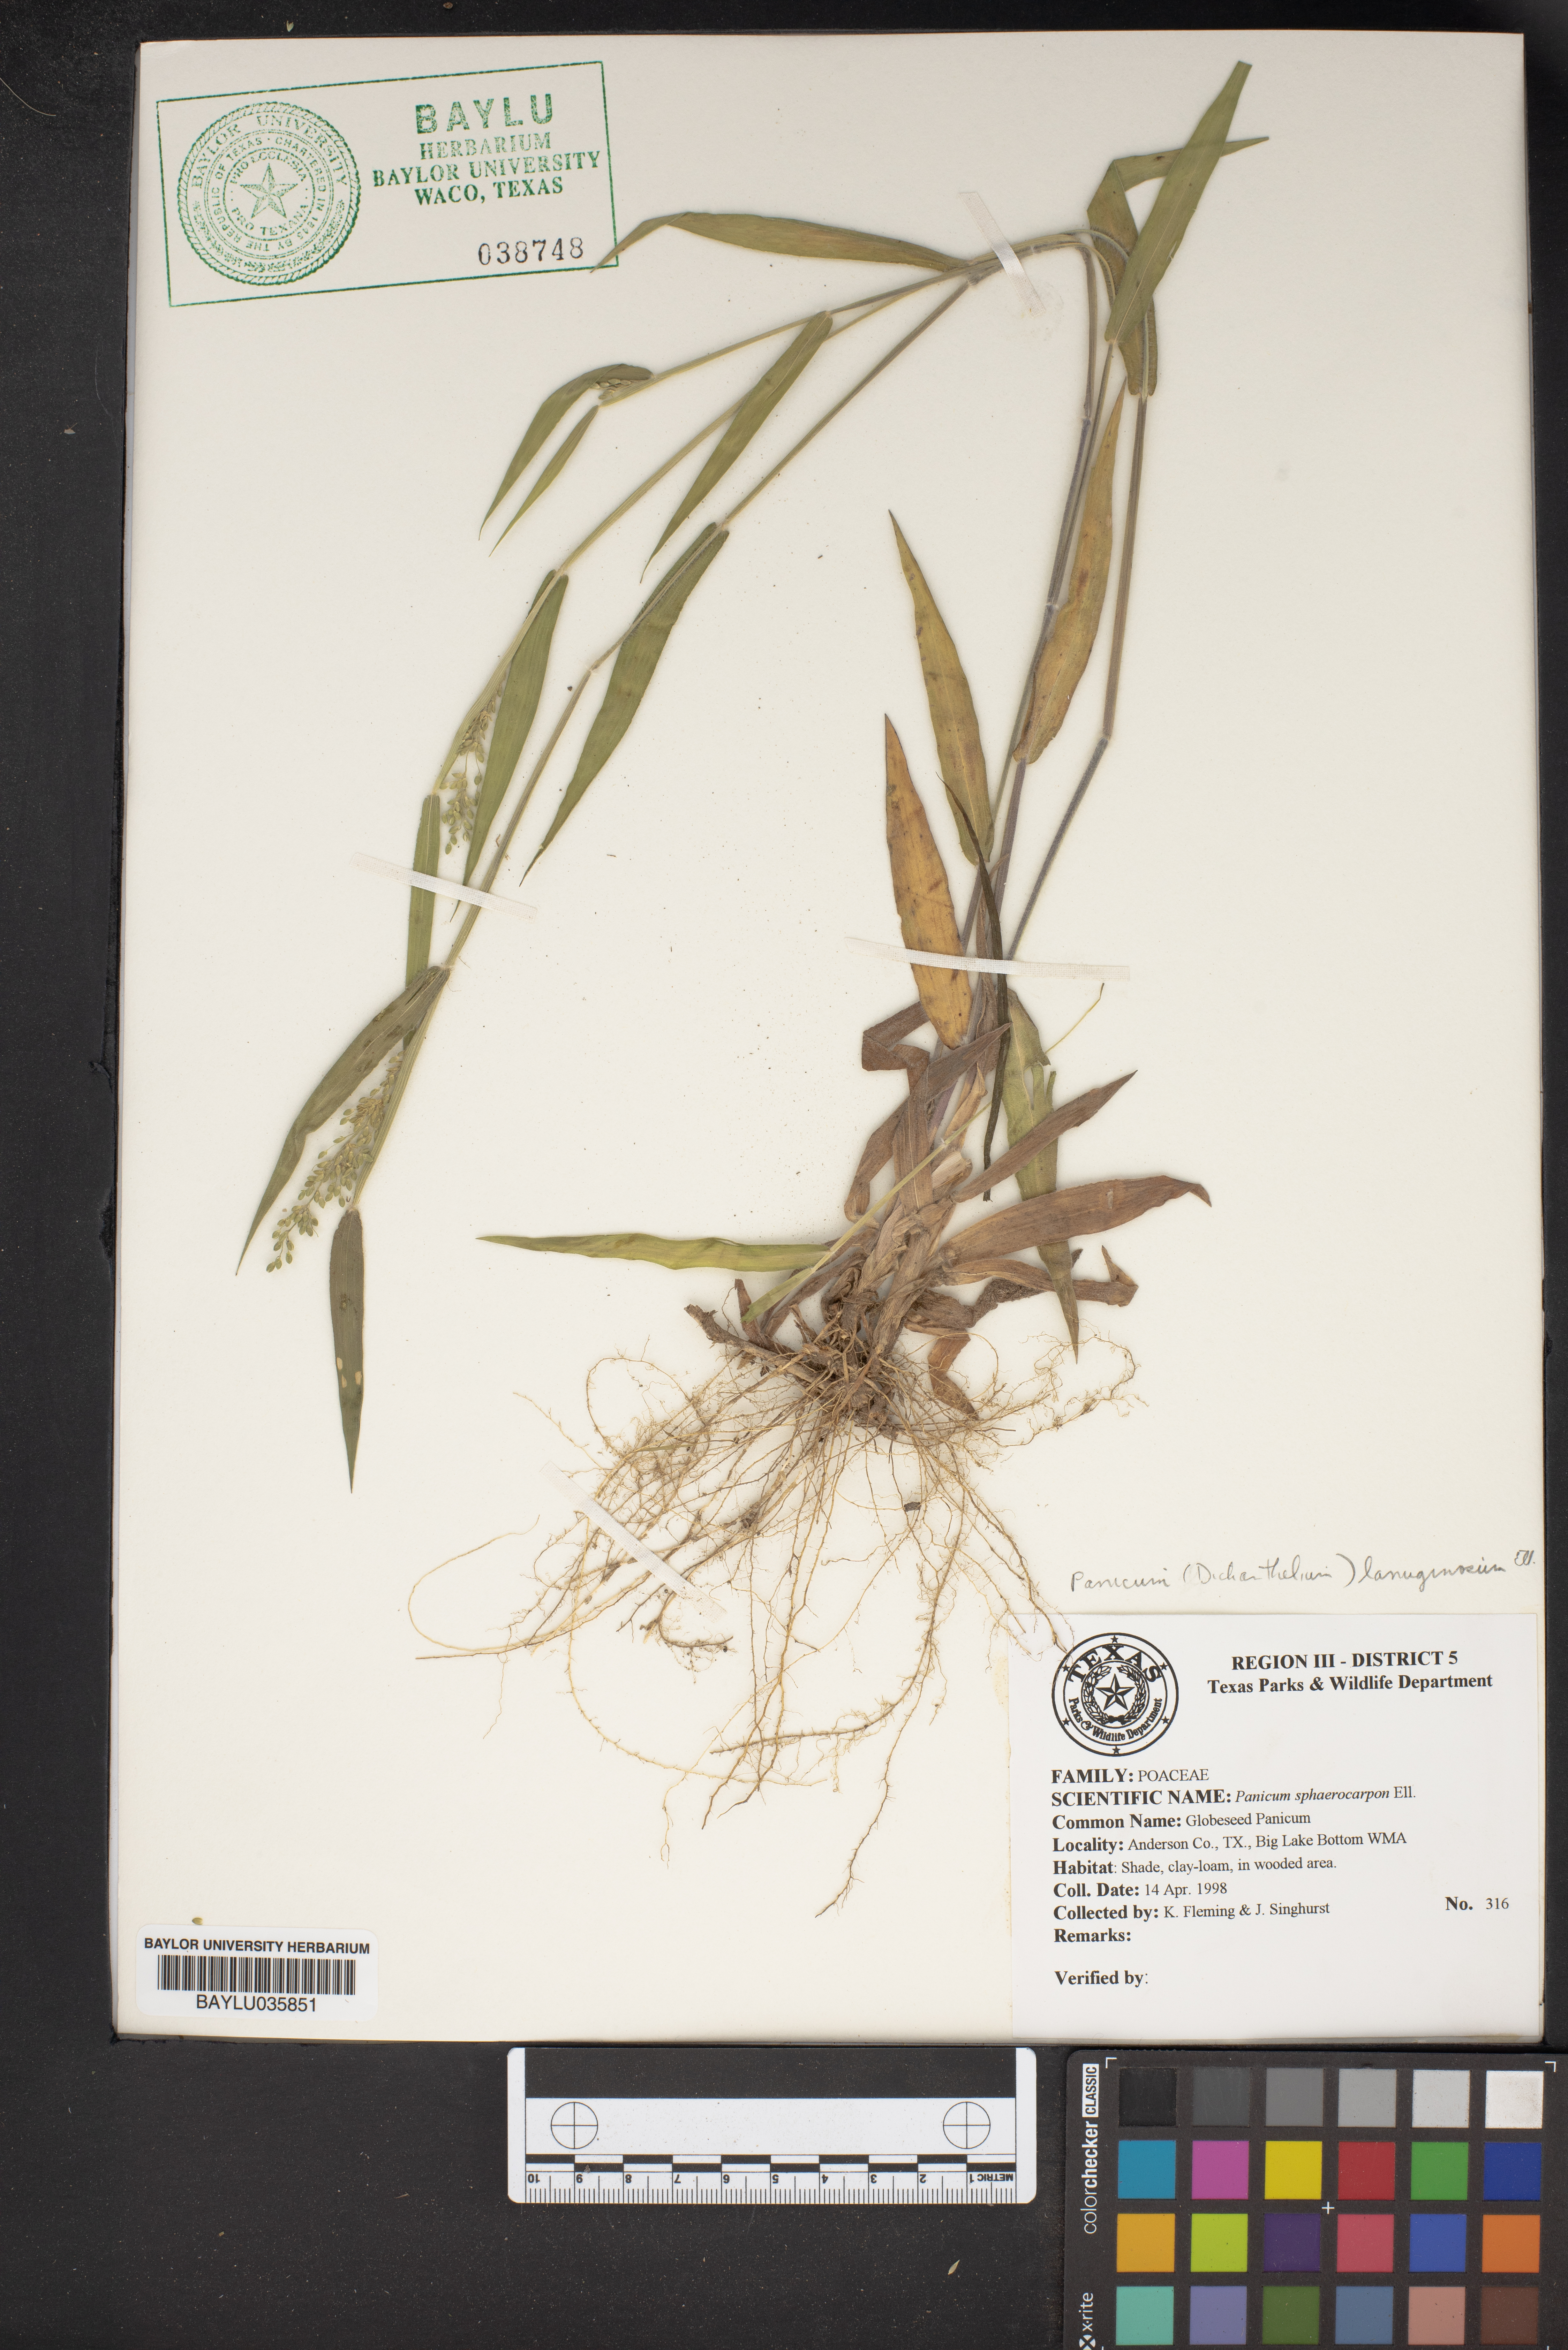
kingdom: Plantae
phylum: Tracheophyta
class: Liliopsida
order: Poales
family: Poaceae
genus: Dichanthelium
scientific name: Dichanthelium sphaerocarpon
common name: Round-fruited panicgrass
